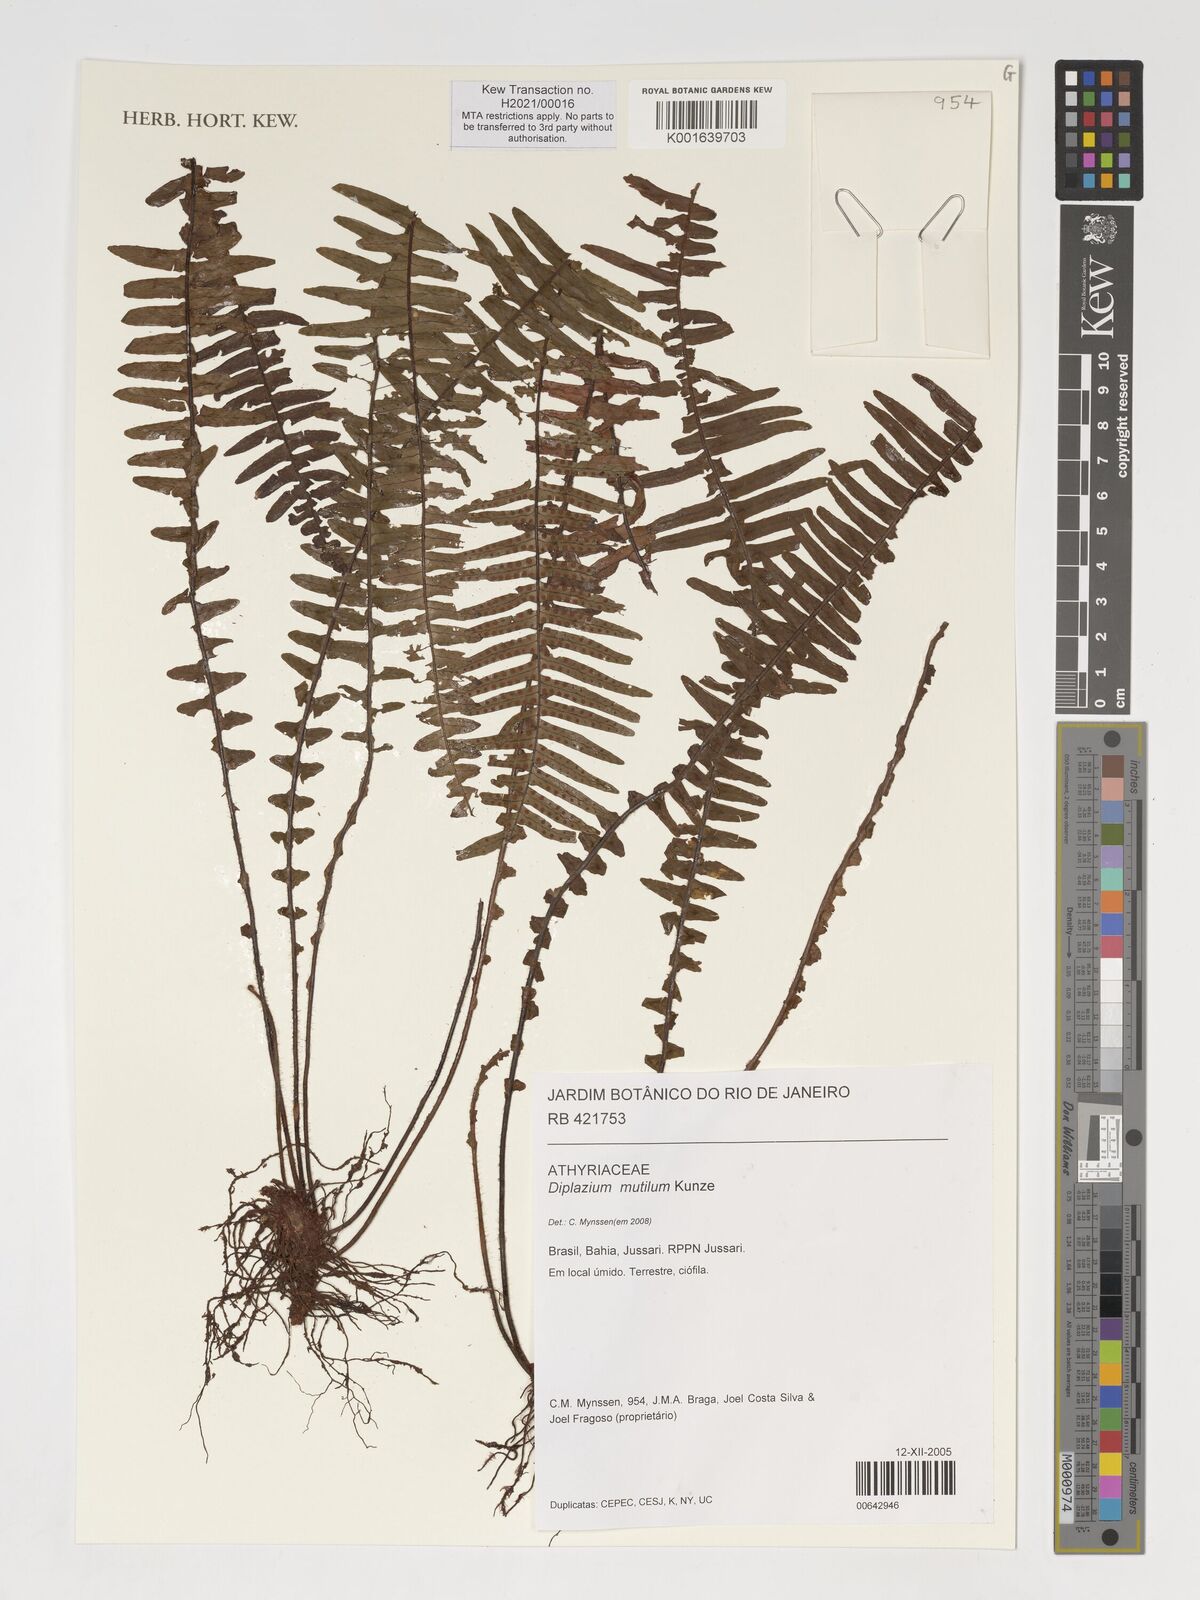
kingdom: Plantae
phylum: Tracheophyta
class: Polypodiopsida
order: Polypodiales
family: Athyriaceae
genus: Diplazium
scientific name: Diplazium mutilum
